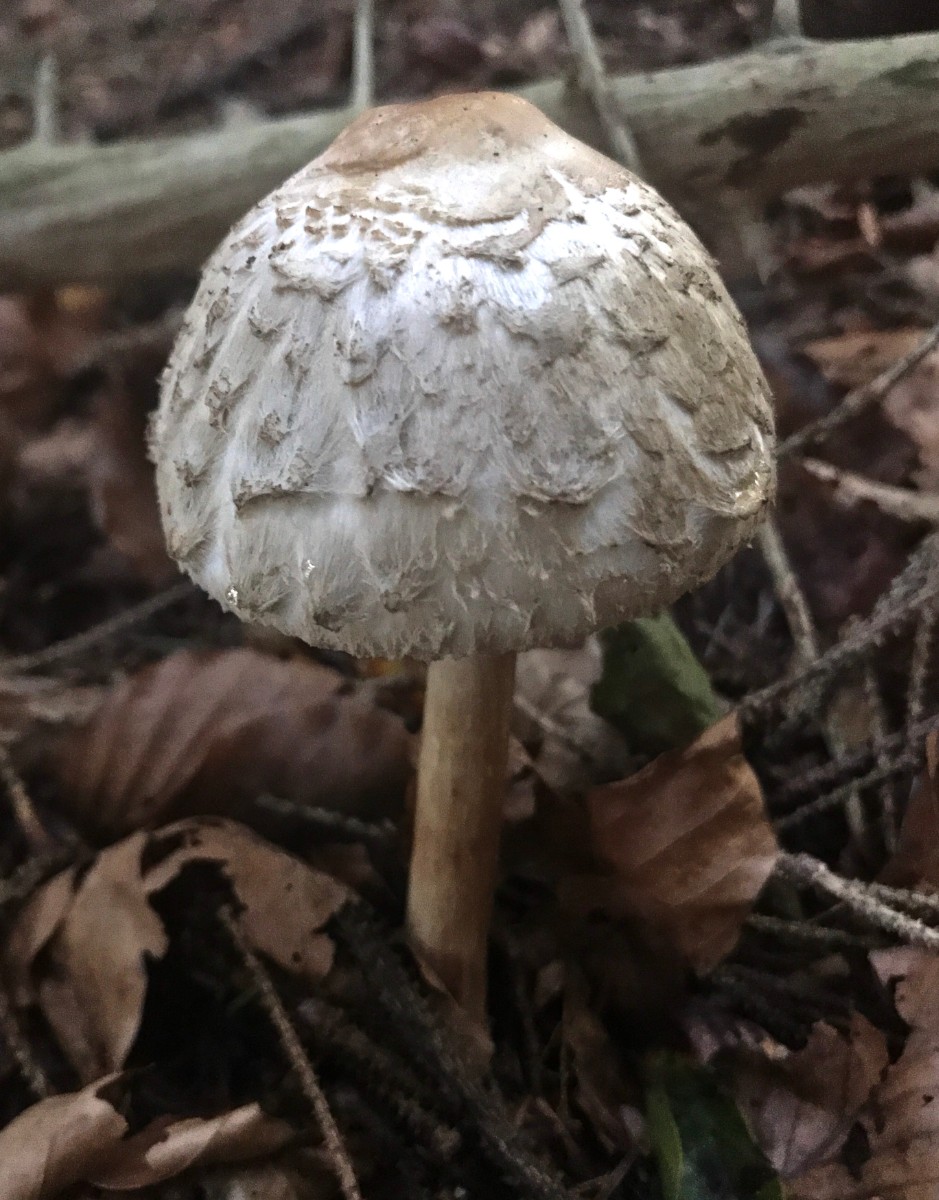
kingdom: Fungi
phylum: Basidiomycota
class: Agaricomycetes
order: Agaricales
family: Agaricaceae
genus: Chlorophyllum
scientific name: Chlorophyllum olivieri
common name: almindelig rabarberhat
